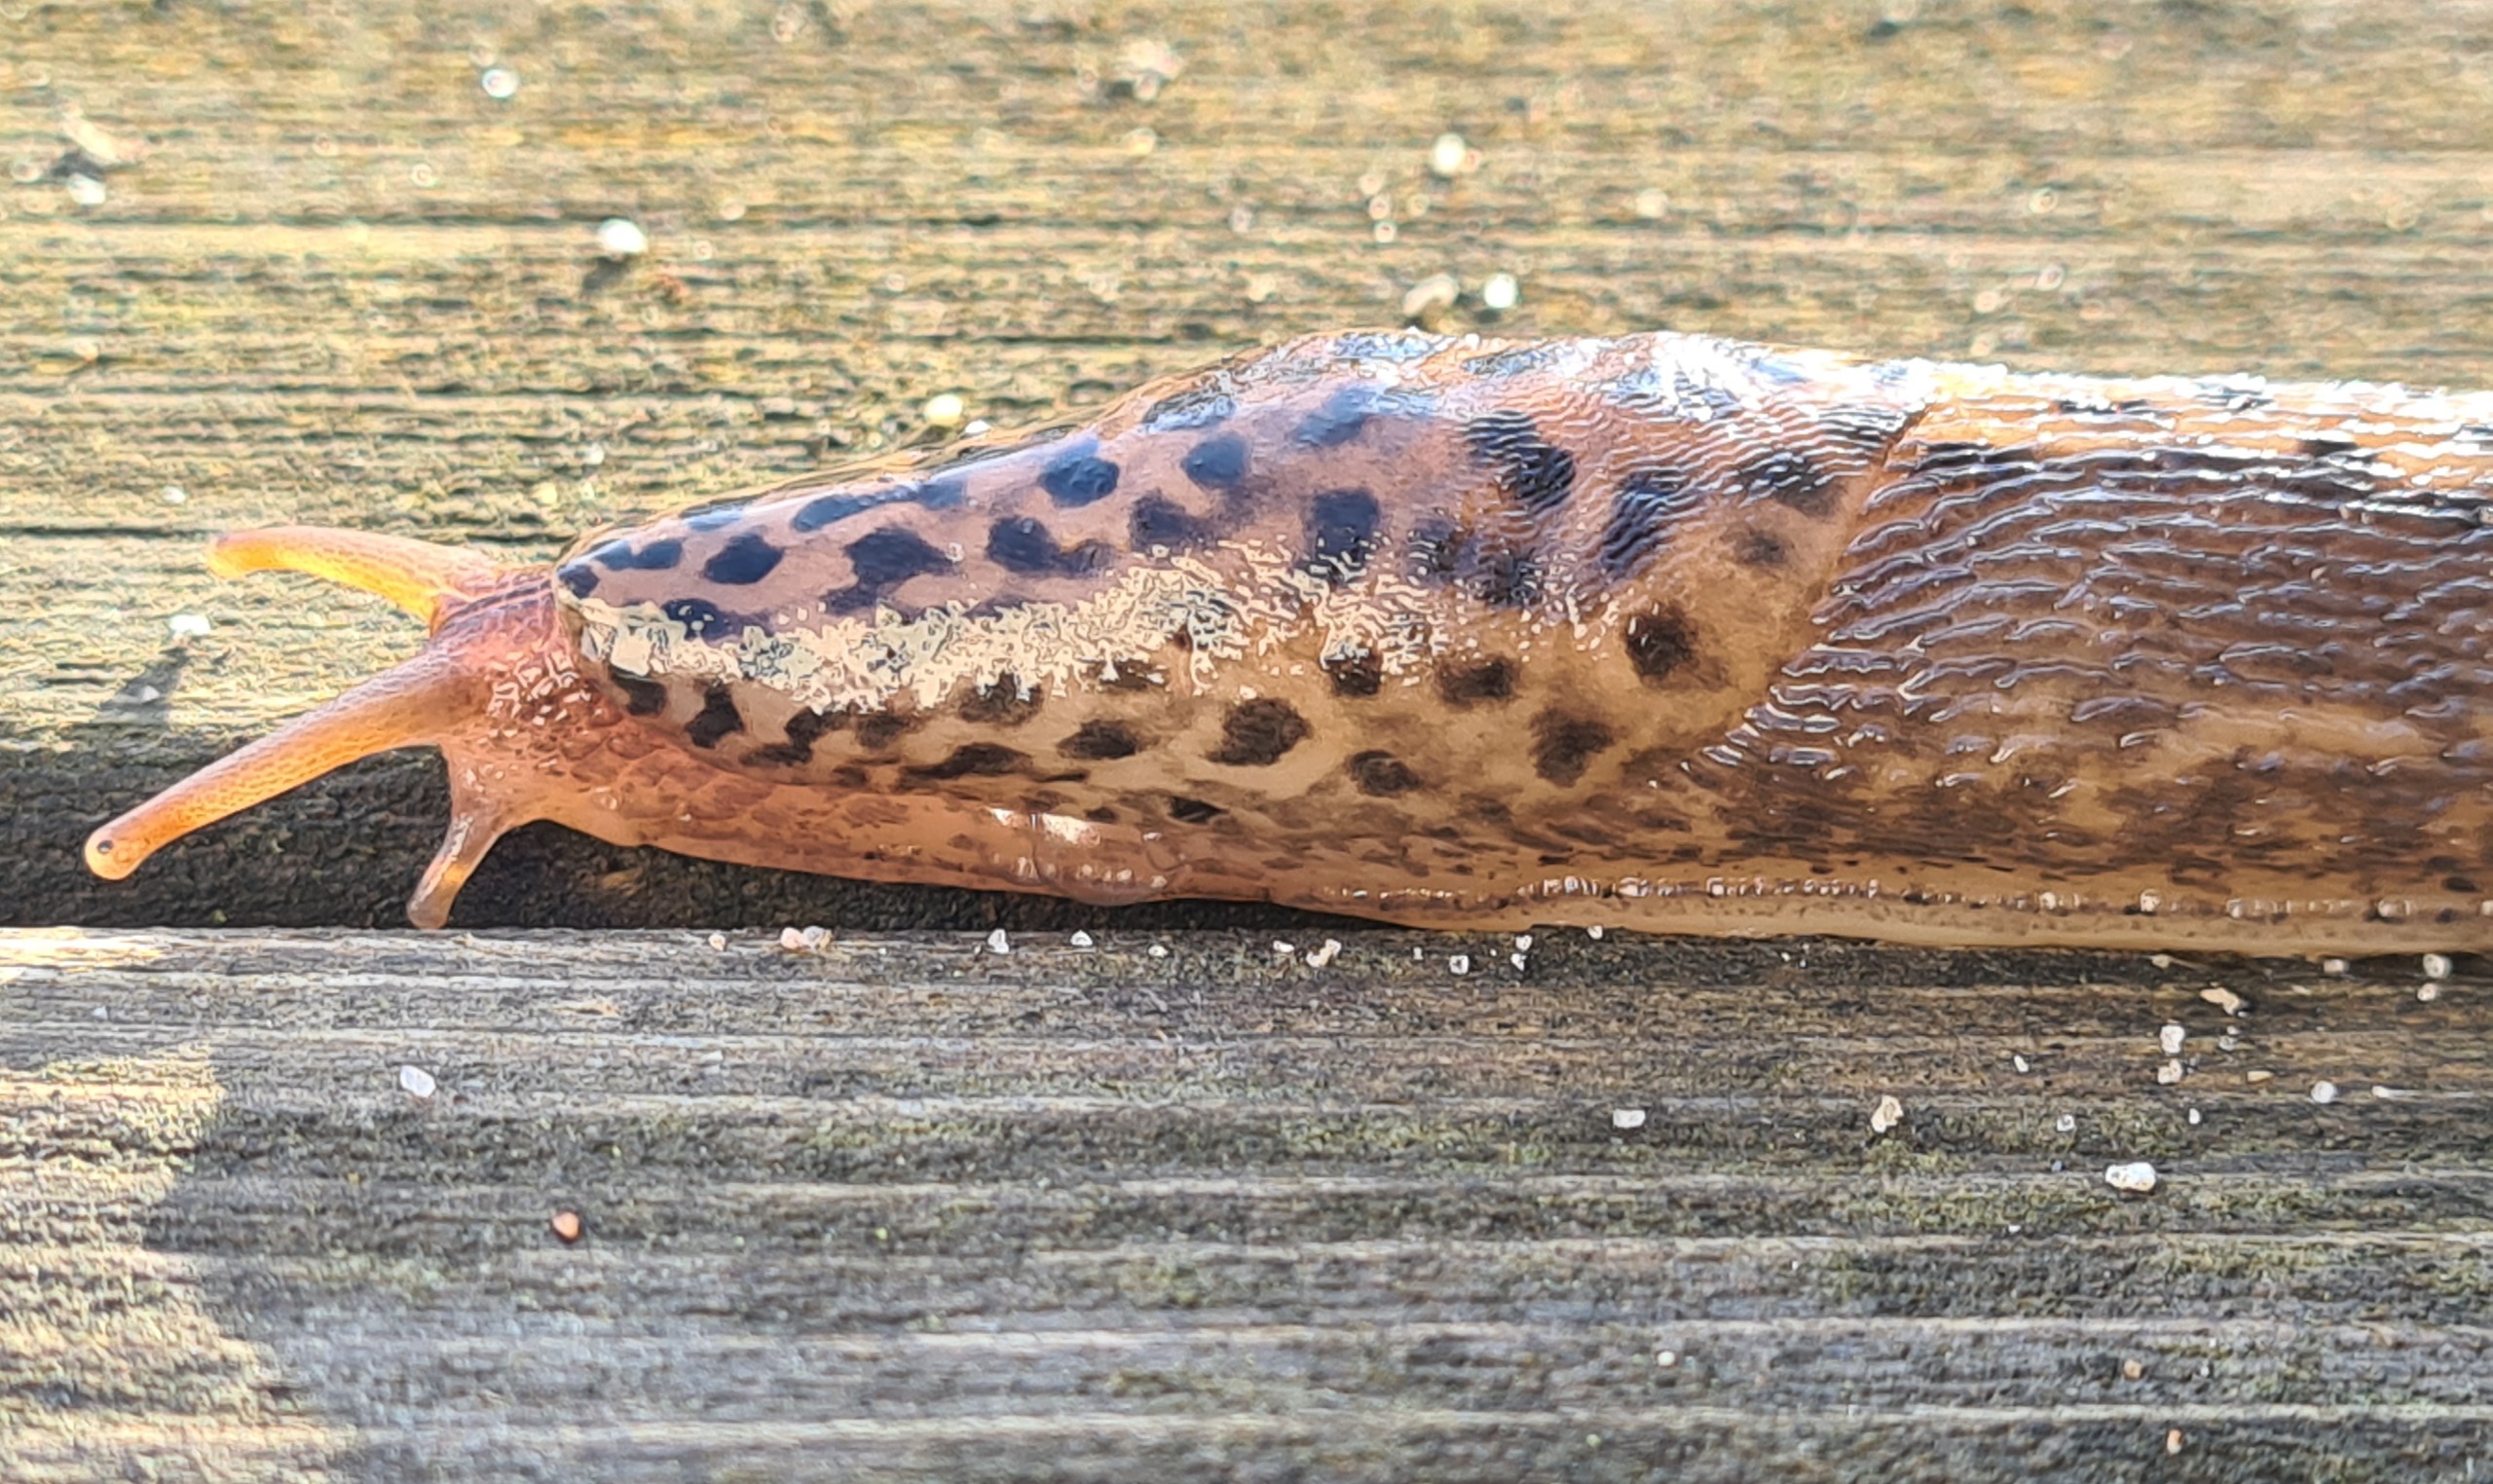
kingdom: Animalia
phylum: Mollusca
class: Gastropoda
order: Stylommatophora
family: Limacidae
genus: Limax
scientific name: Limax maximus
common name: Pantersnegl
